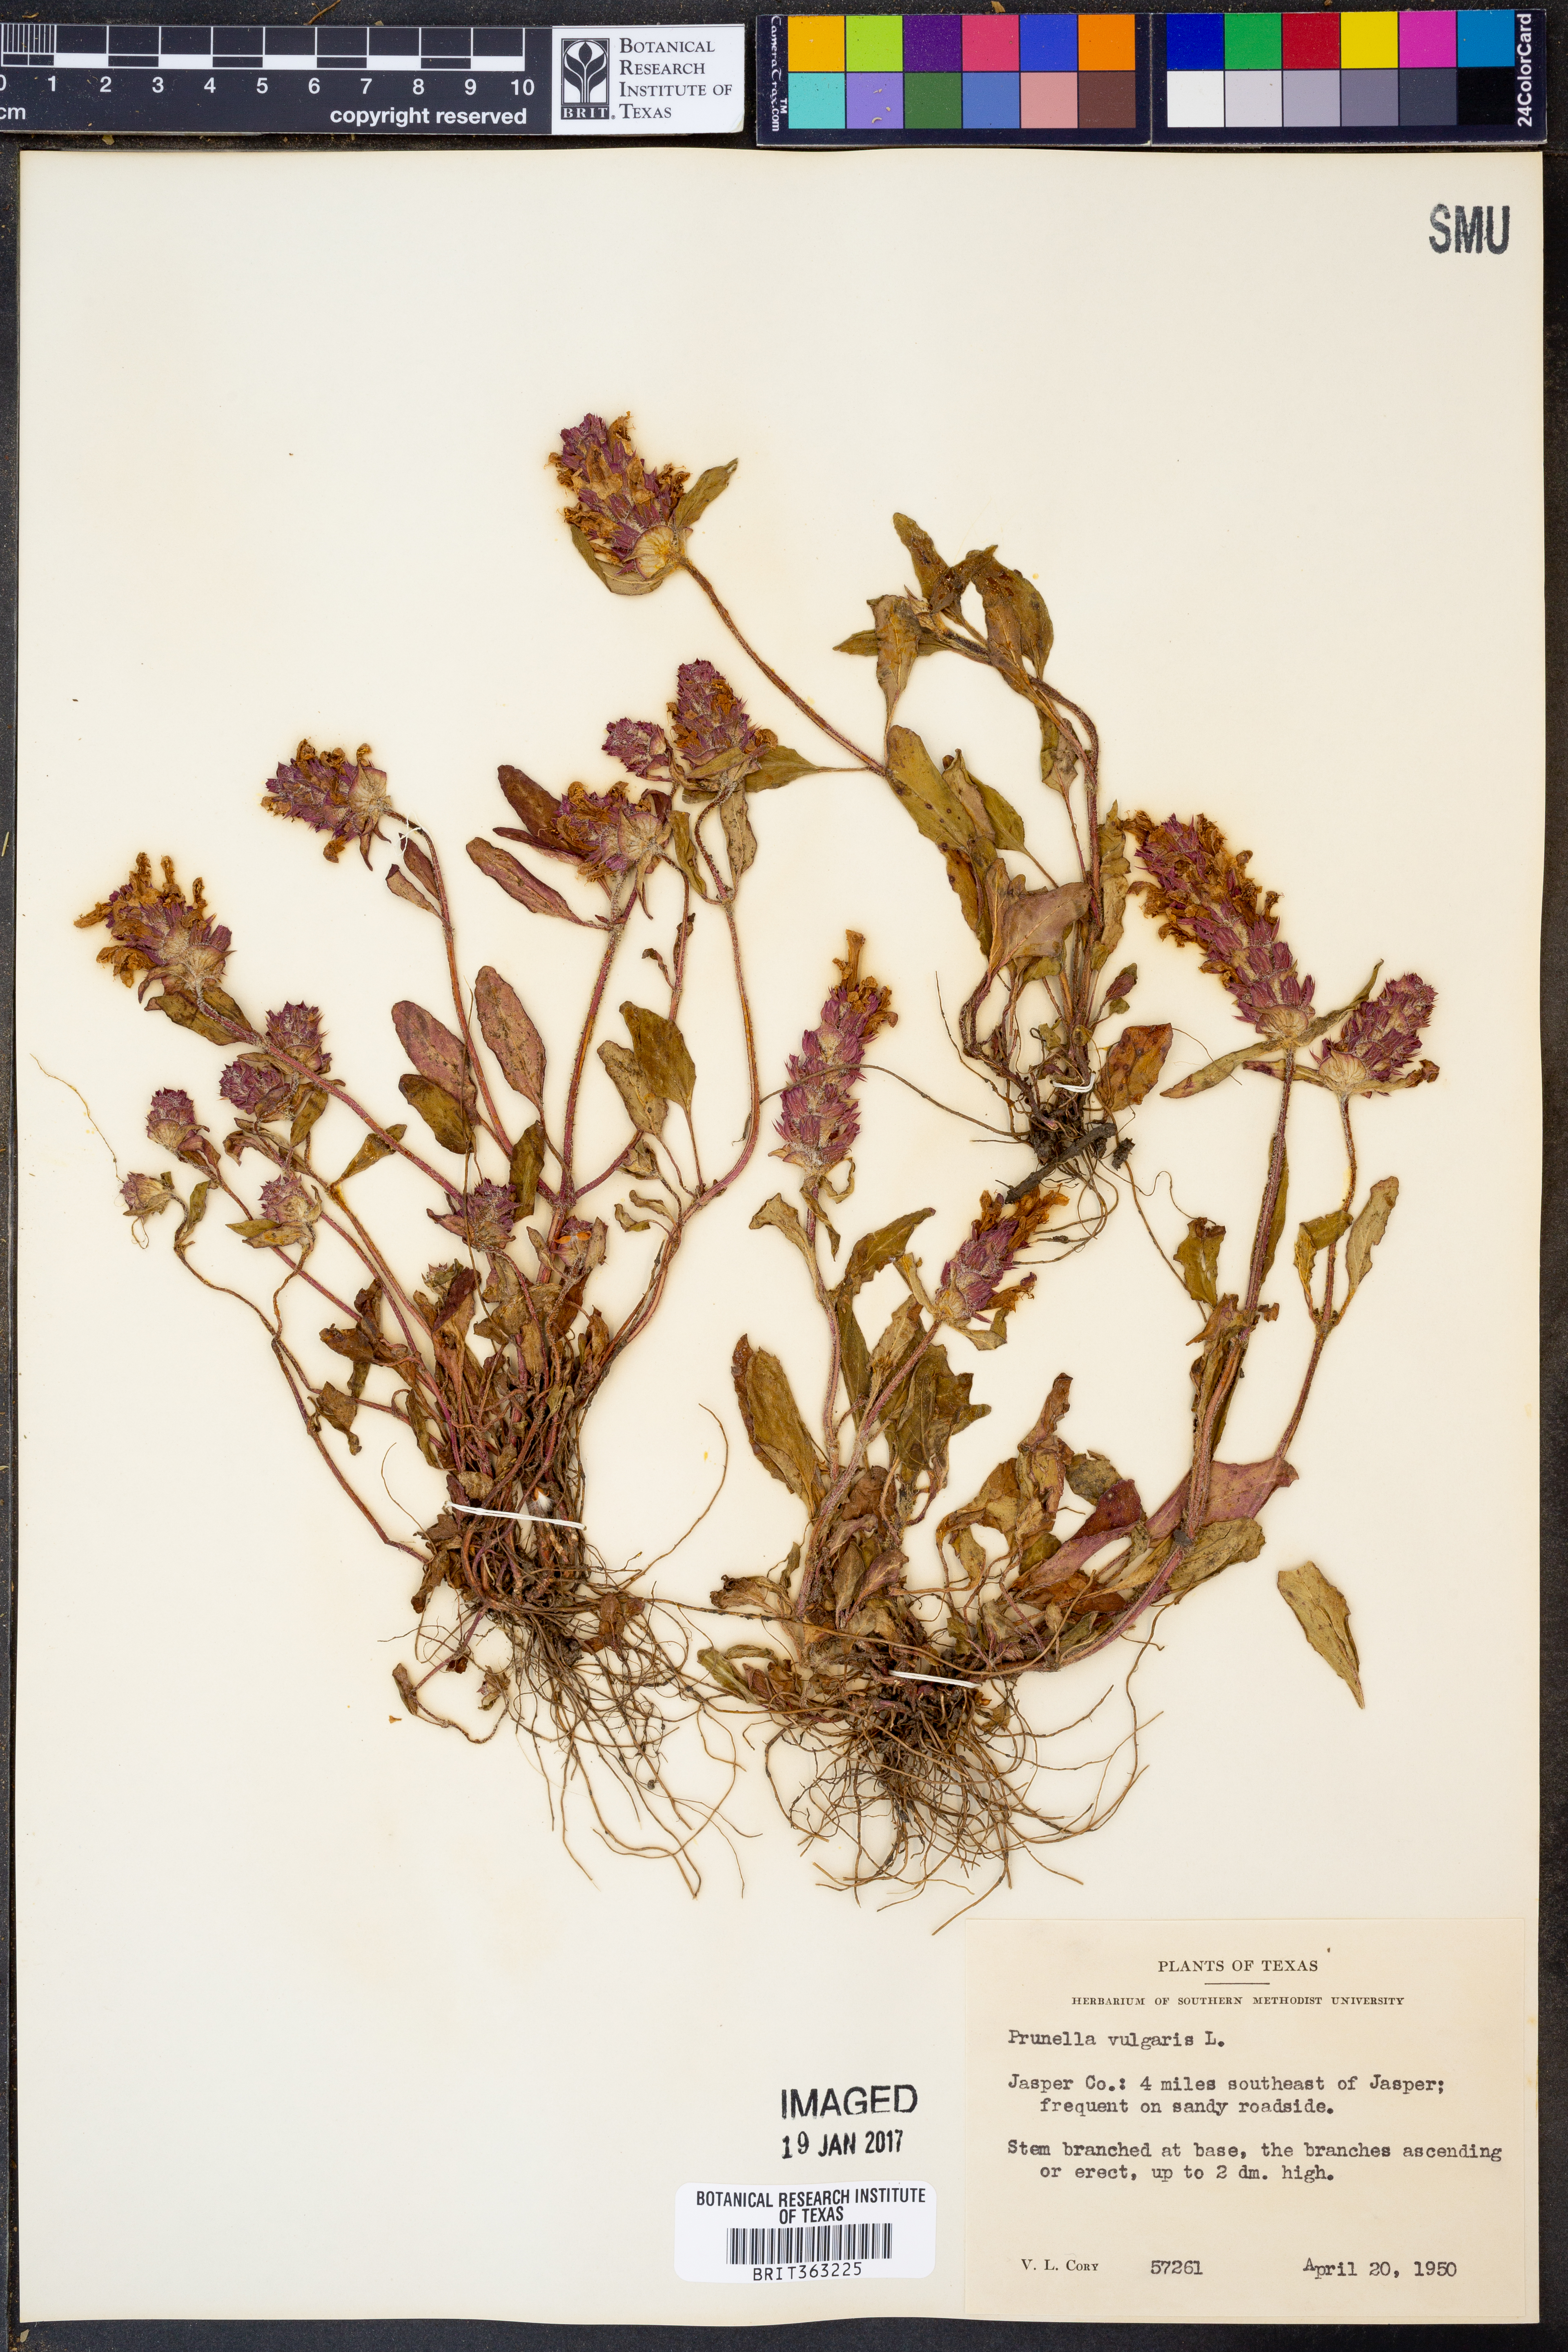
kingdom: Plantae
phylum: Tracheophyta
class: Magnoliopsida
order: Lamiales
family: Lamiaceae
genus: Prunella
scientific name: Prunella vulgaris
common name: Heal-all
